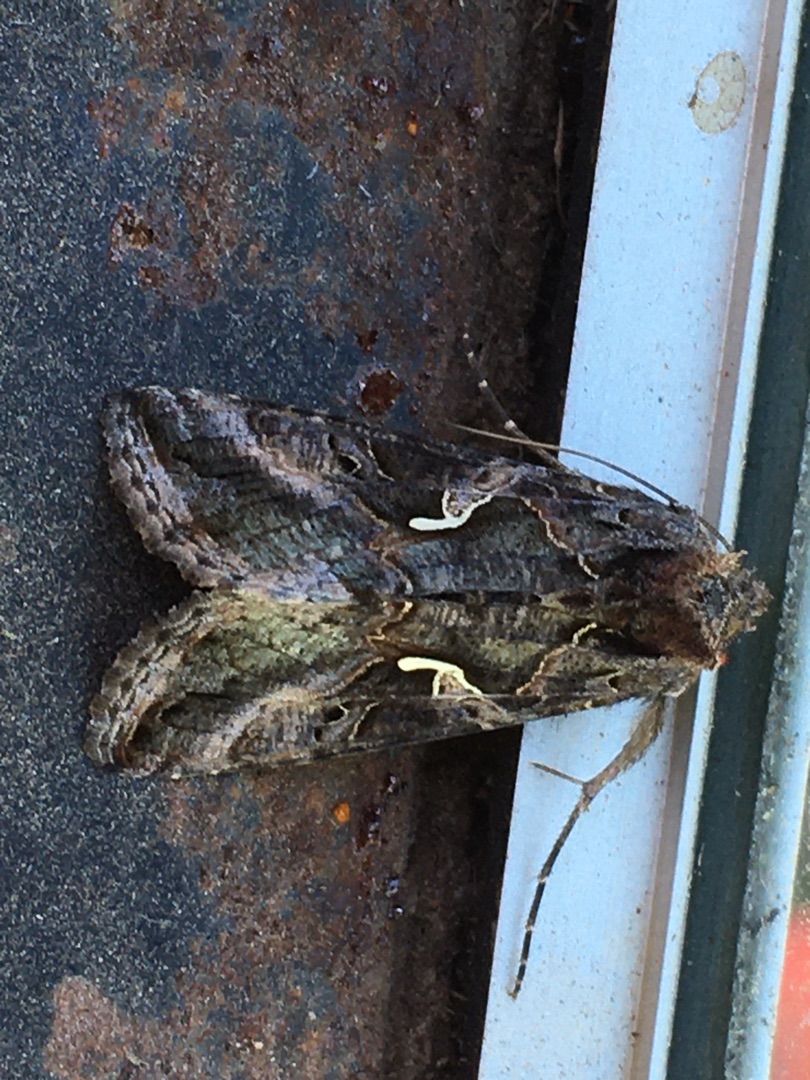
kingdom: Animalia
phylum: Arthropoda
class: Insecta
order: Lepidoptera
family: Noctuidae
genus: Autographa
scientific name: Autographa gamma
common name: Gammaugle
